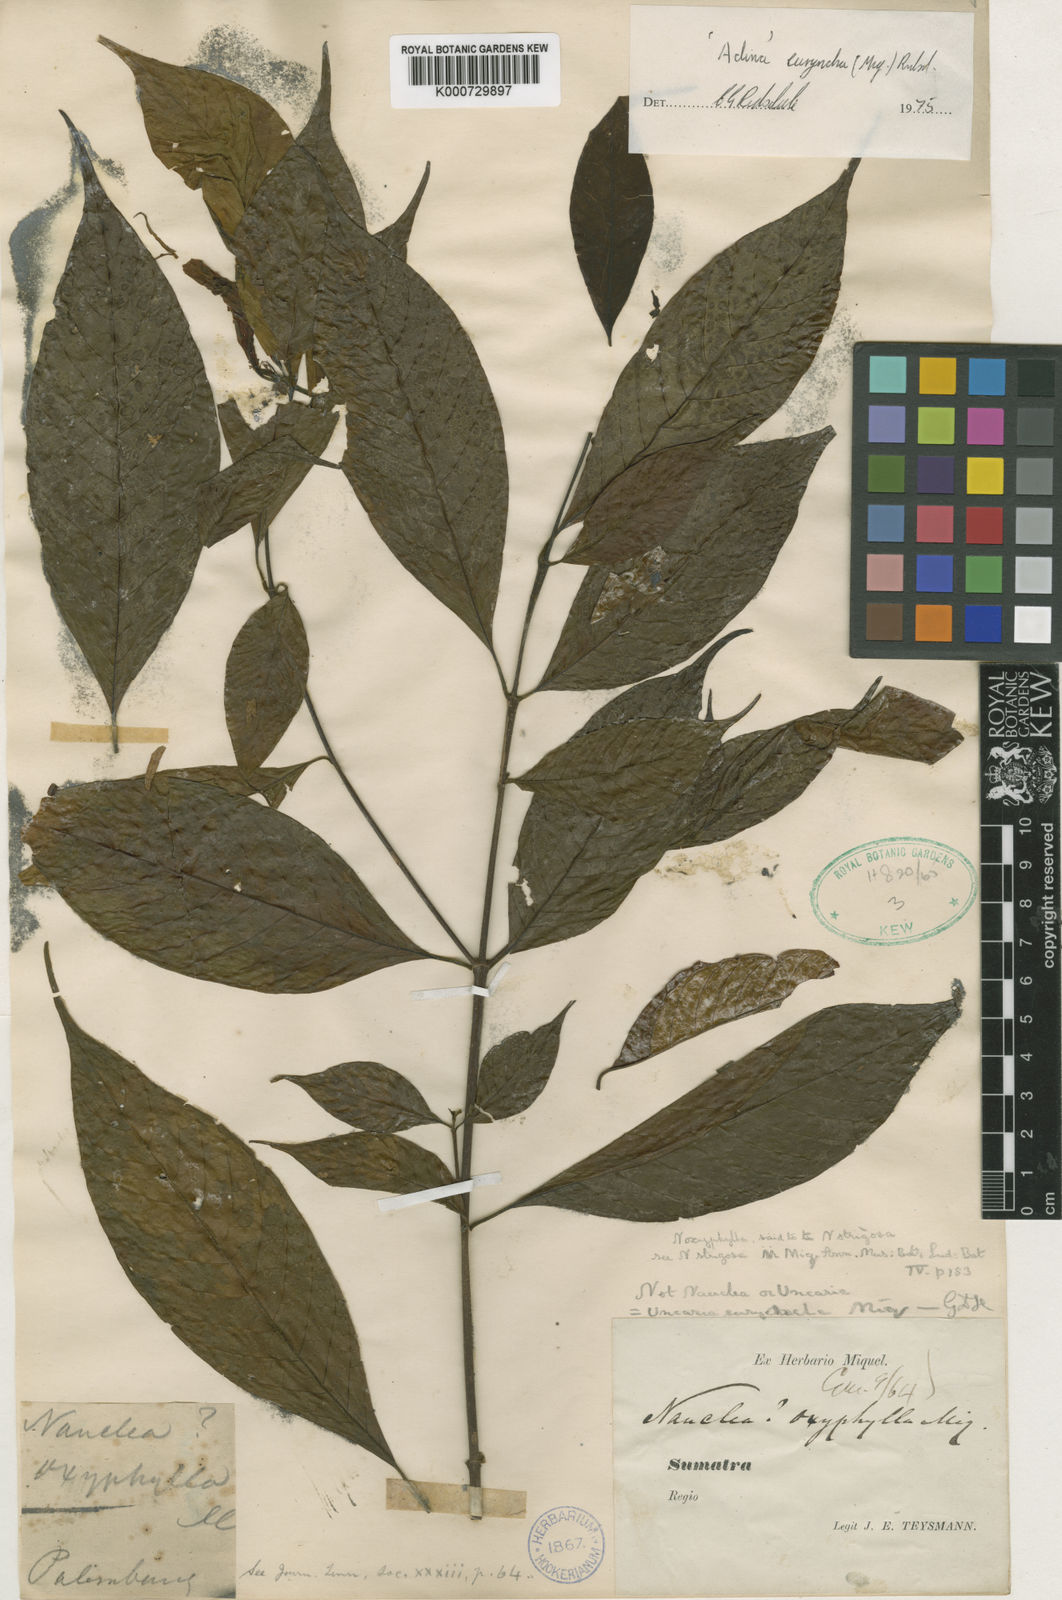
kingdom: Plantae
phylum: Tracheophyta
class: Magnoliopsida
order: Gentianales
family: Rubiaceae
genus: Adina
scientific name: Adina eurhyncha
